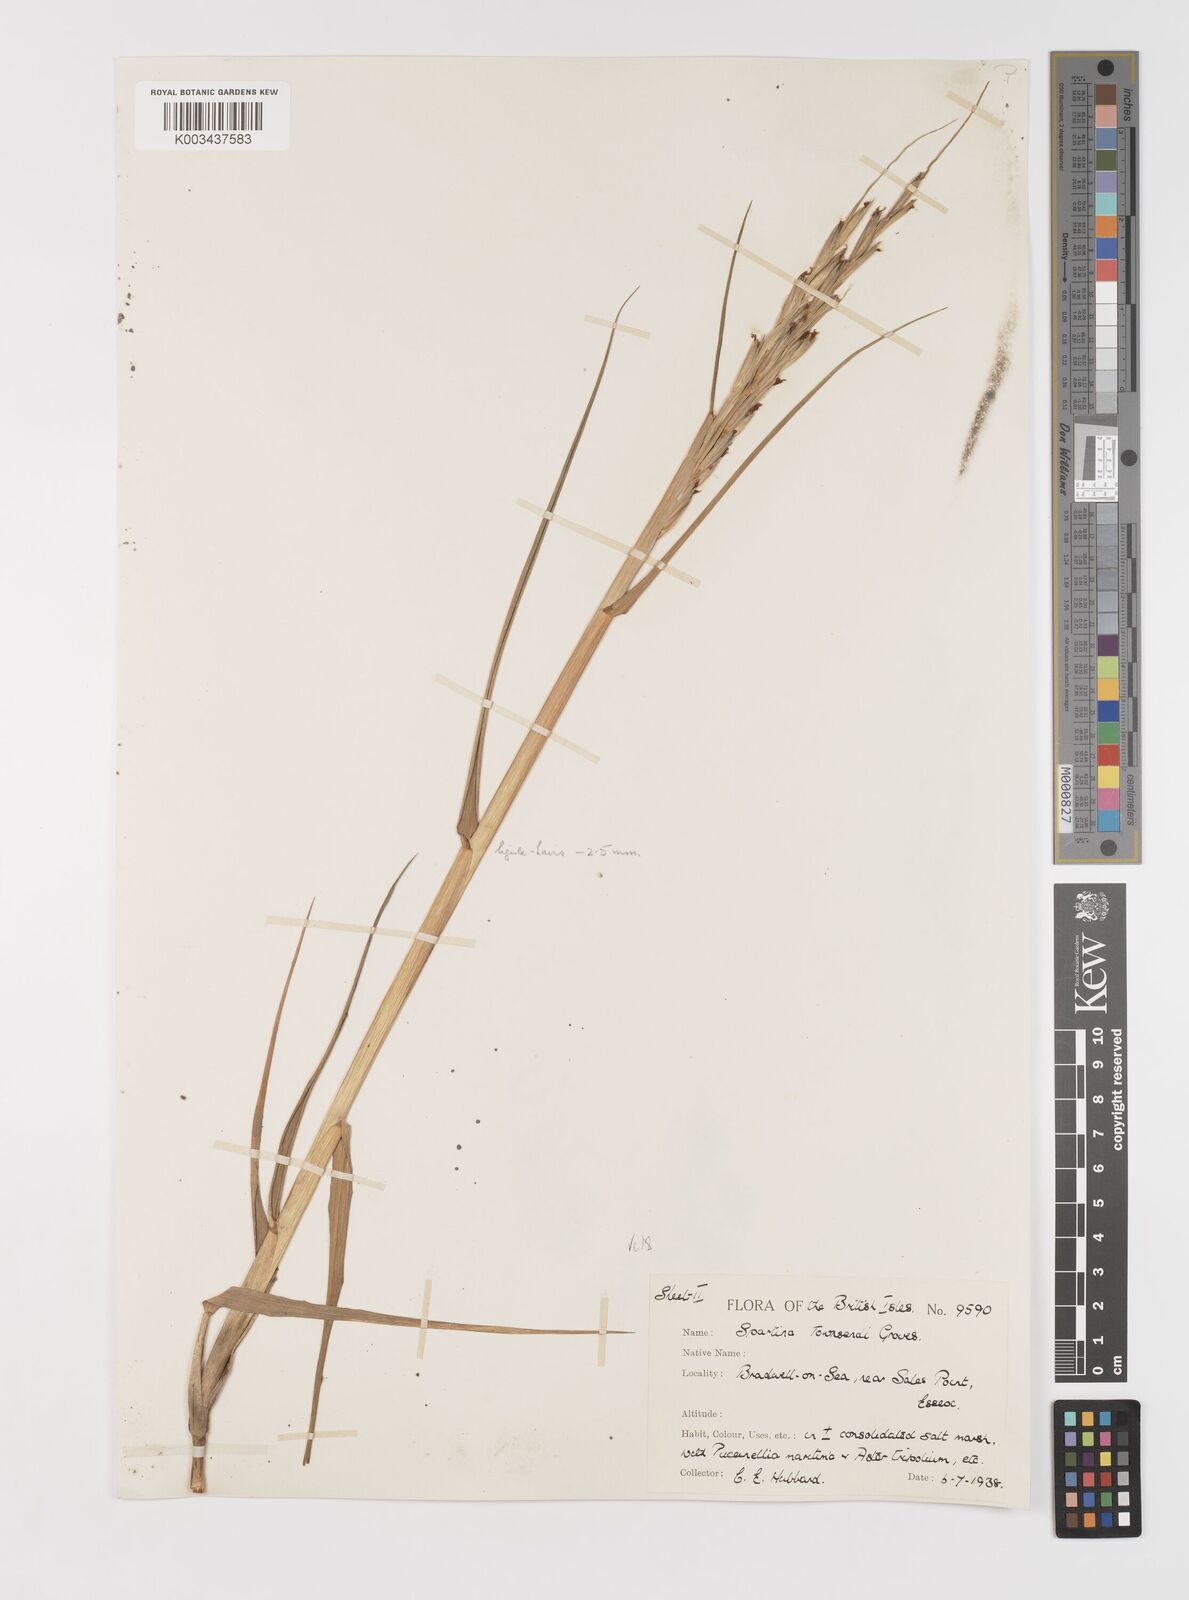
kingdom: Plantae
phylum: Tracheophyta
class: Liliopsida
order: Poales
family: Poaceae
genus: Sporobolus
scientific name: Sporobolus anglicus
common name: English cordgrass
